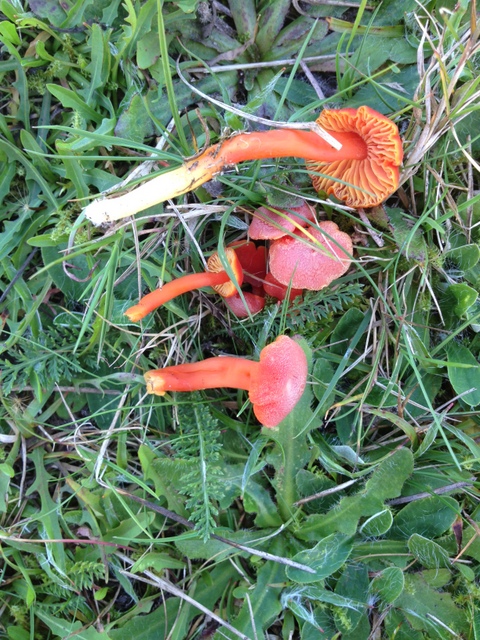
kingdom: Fungi
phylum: Basidiomycota
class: Agaricomycetes
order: Agaricales
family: Hygrophoraceae
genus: Hygrocybe
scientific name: Hygrocybe miniata
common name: mønje-vokshat
